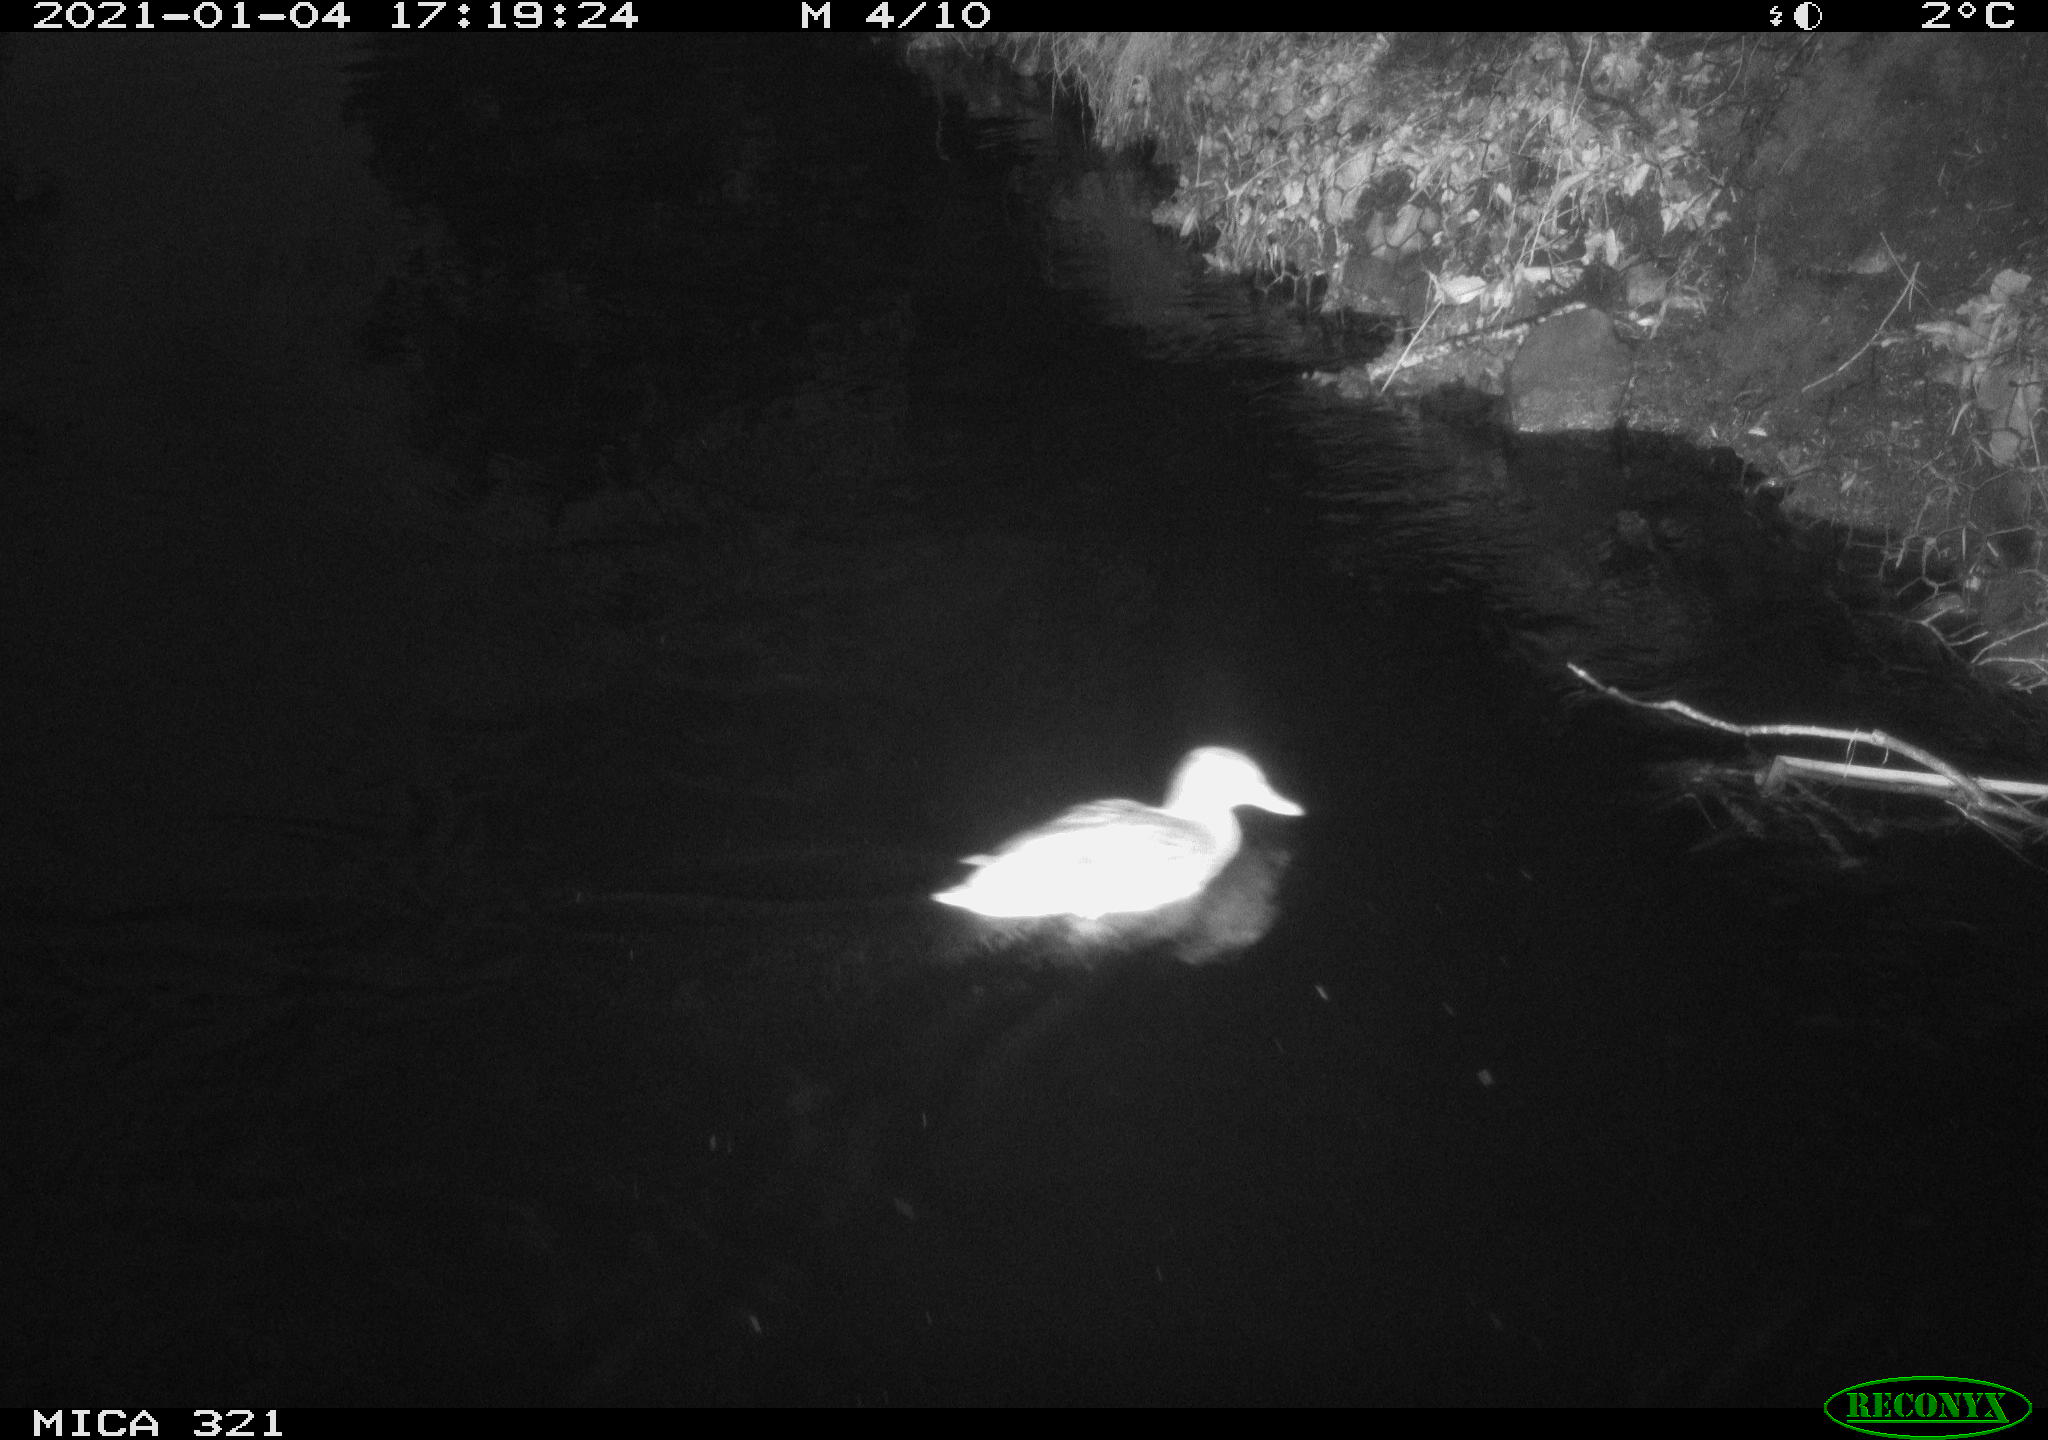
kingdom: Animalia
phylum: Chordata
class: Aves
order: Anseriformes
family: Anatidae
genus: Anas
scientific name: Anas platyrhynchos
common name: Mallard
